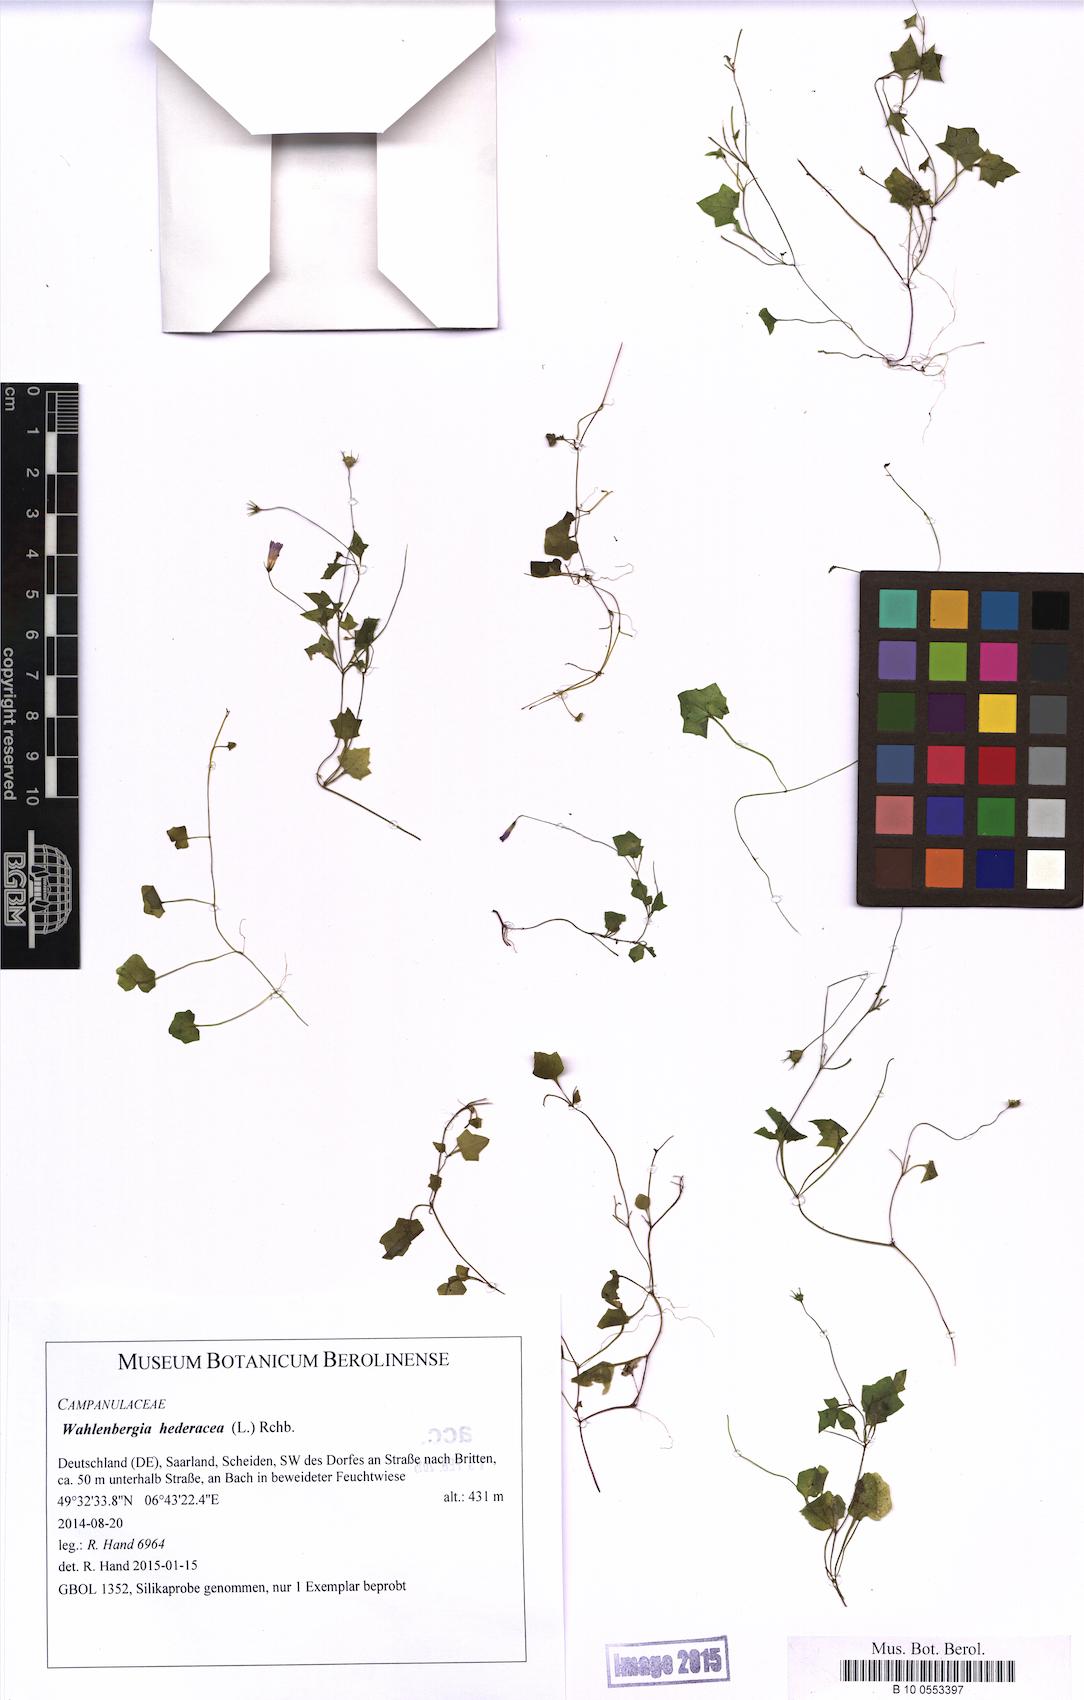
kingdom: Plantae
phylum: Tracheophyta
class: Magnoliopsida
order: Asterales
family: Campanulaceae
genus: Hesperocodon
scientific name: Hesperocodon hederaceus
